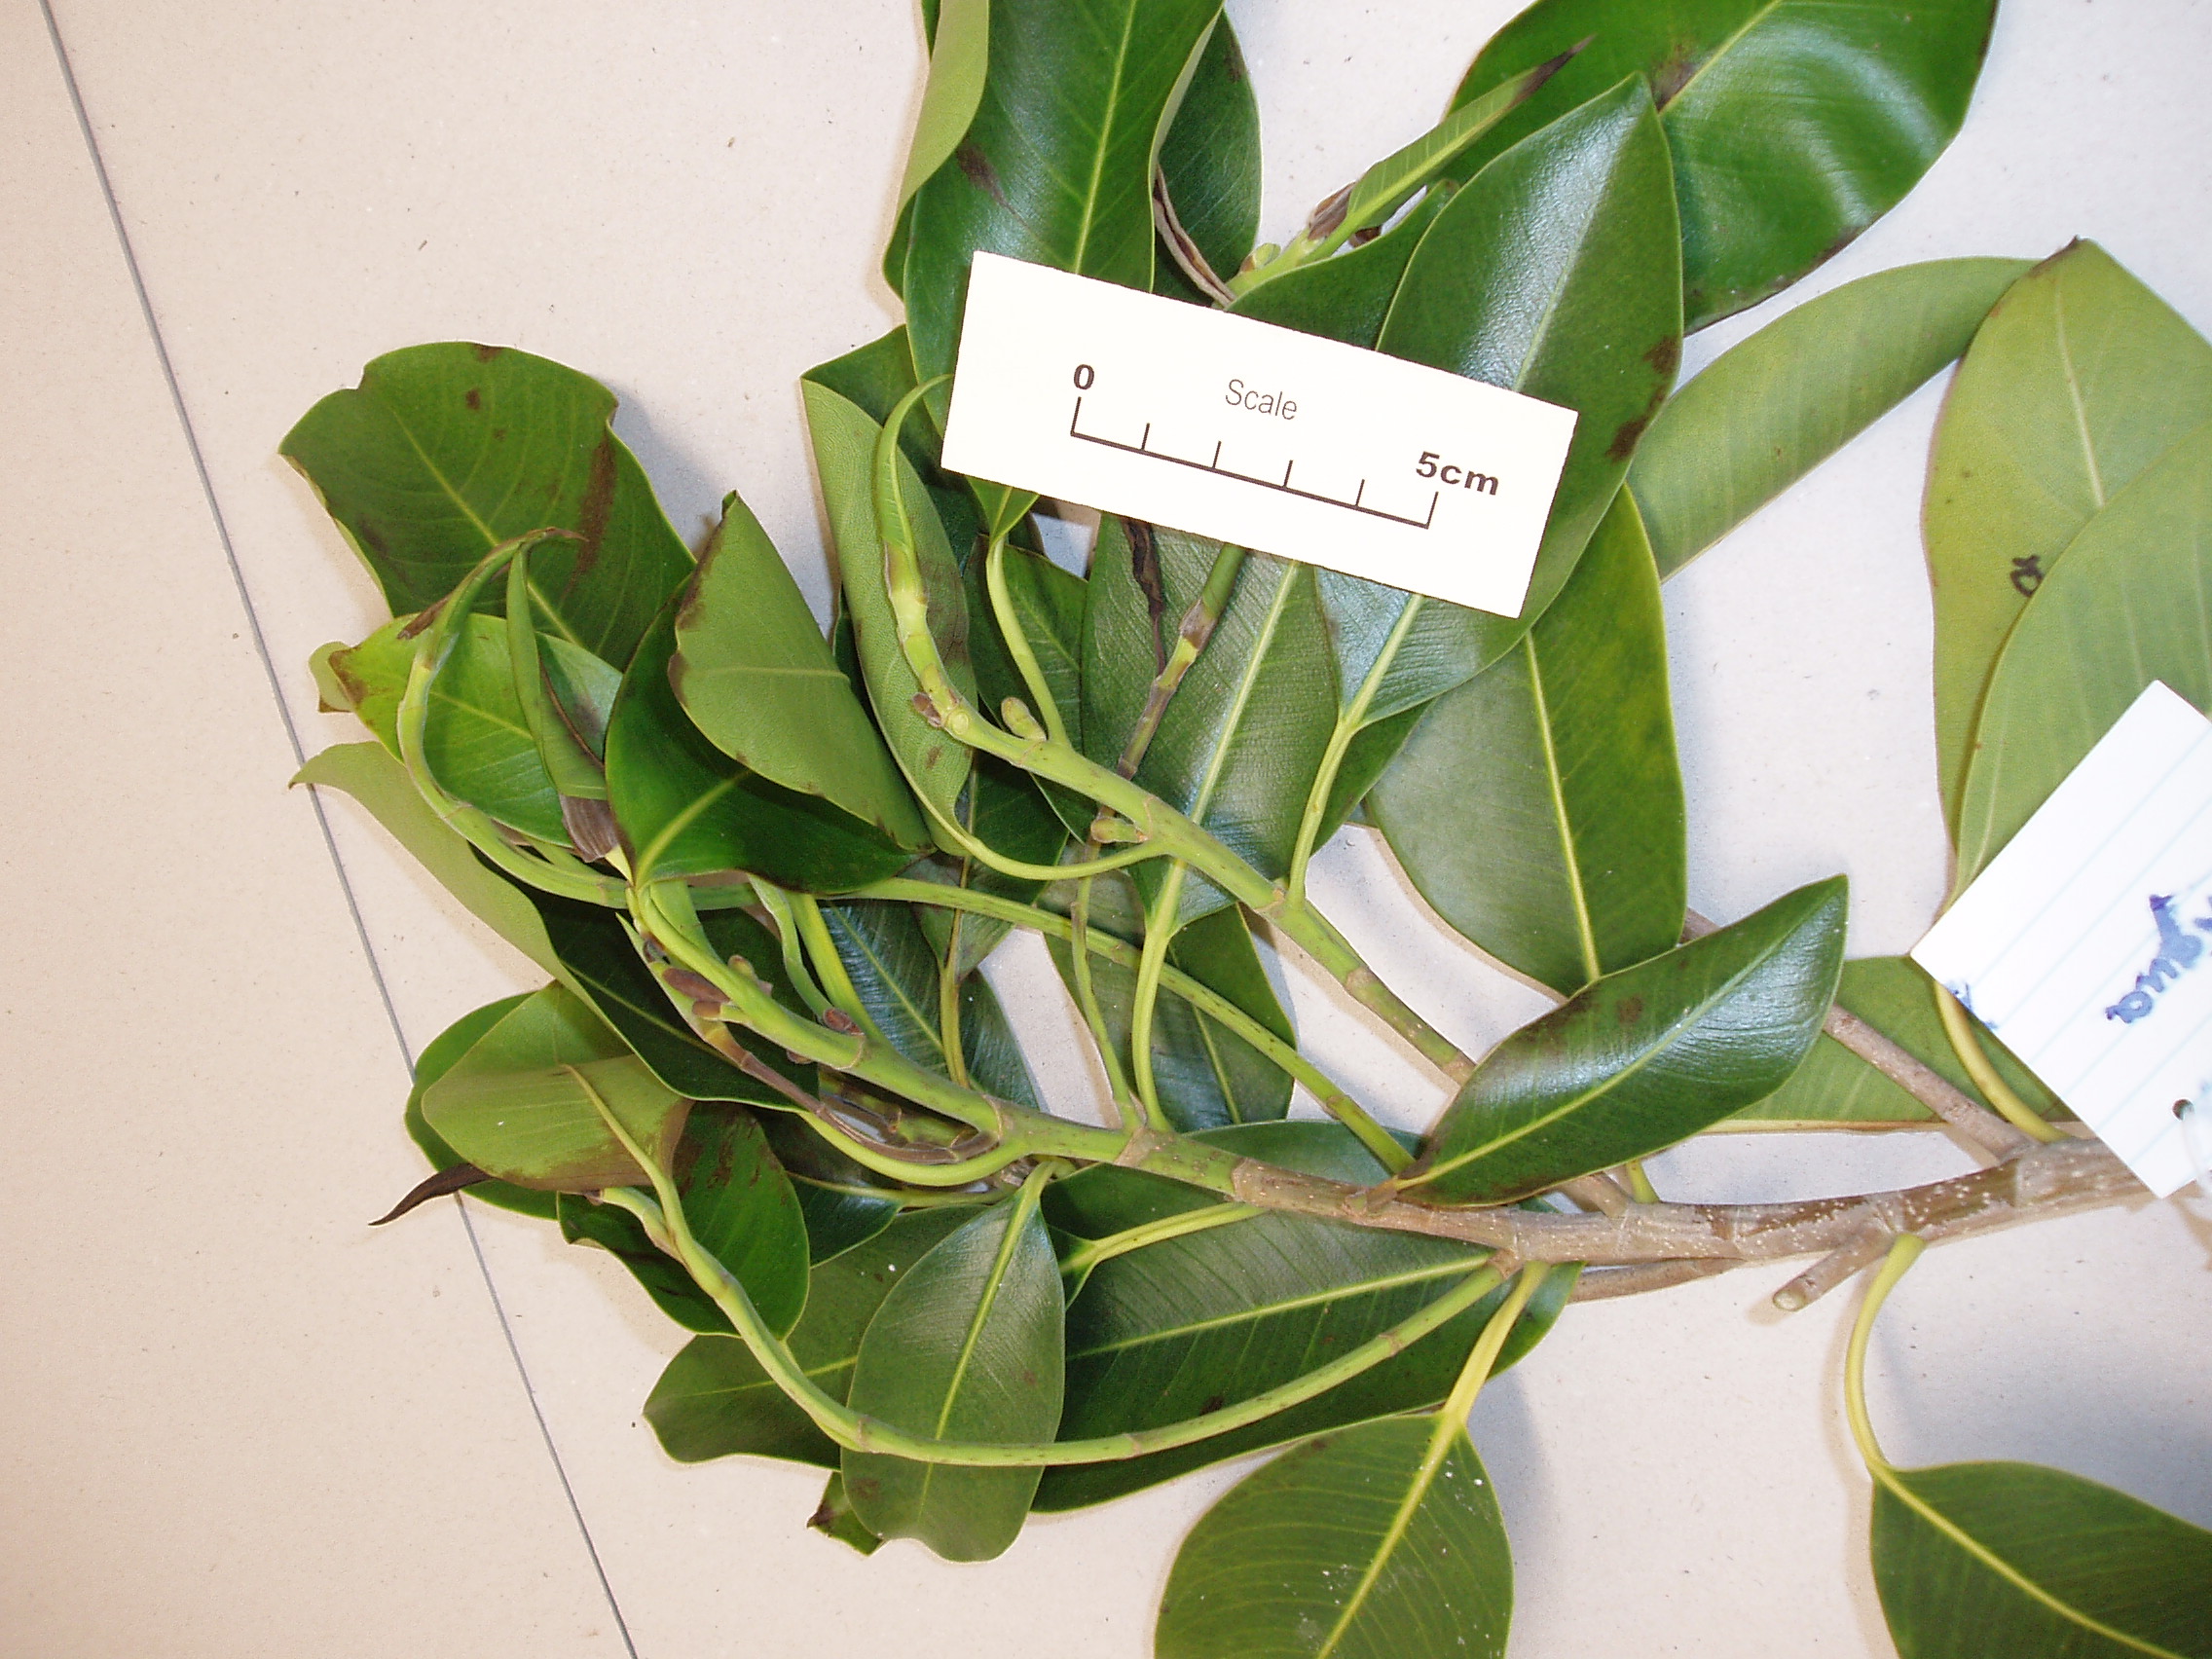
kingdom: Plantae
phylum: Tracheophyta
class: Magnoliopsida
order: Rosales
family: Moraceae
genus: Ficus
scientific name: Ficus obliqua
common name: Small-leaf fig
